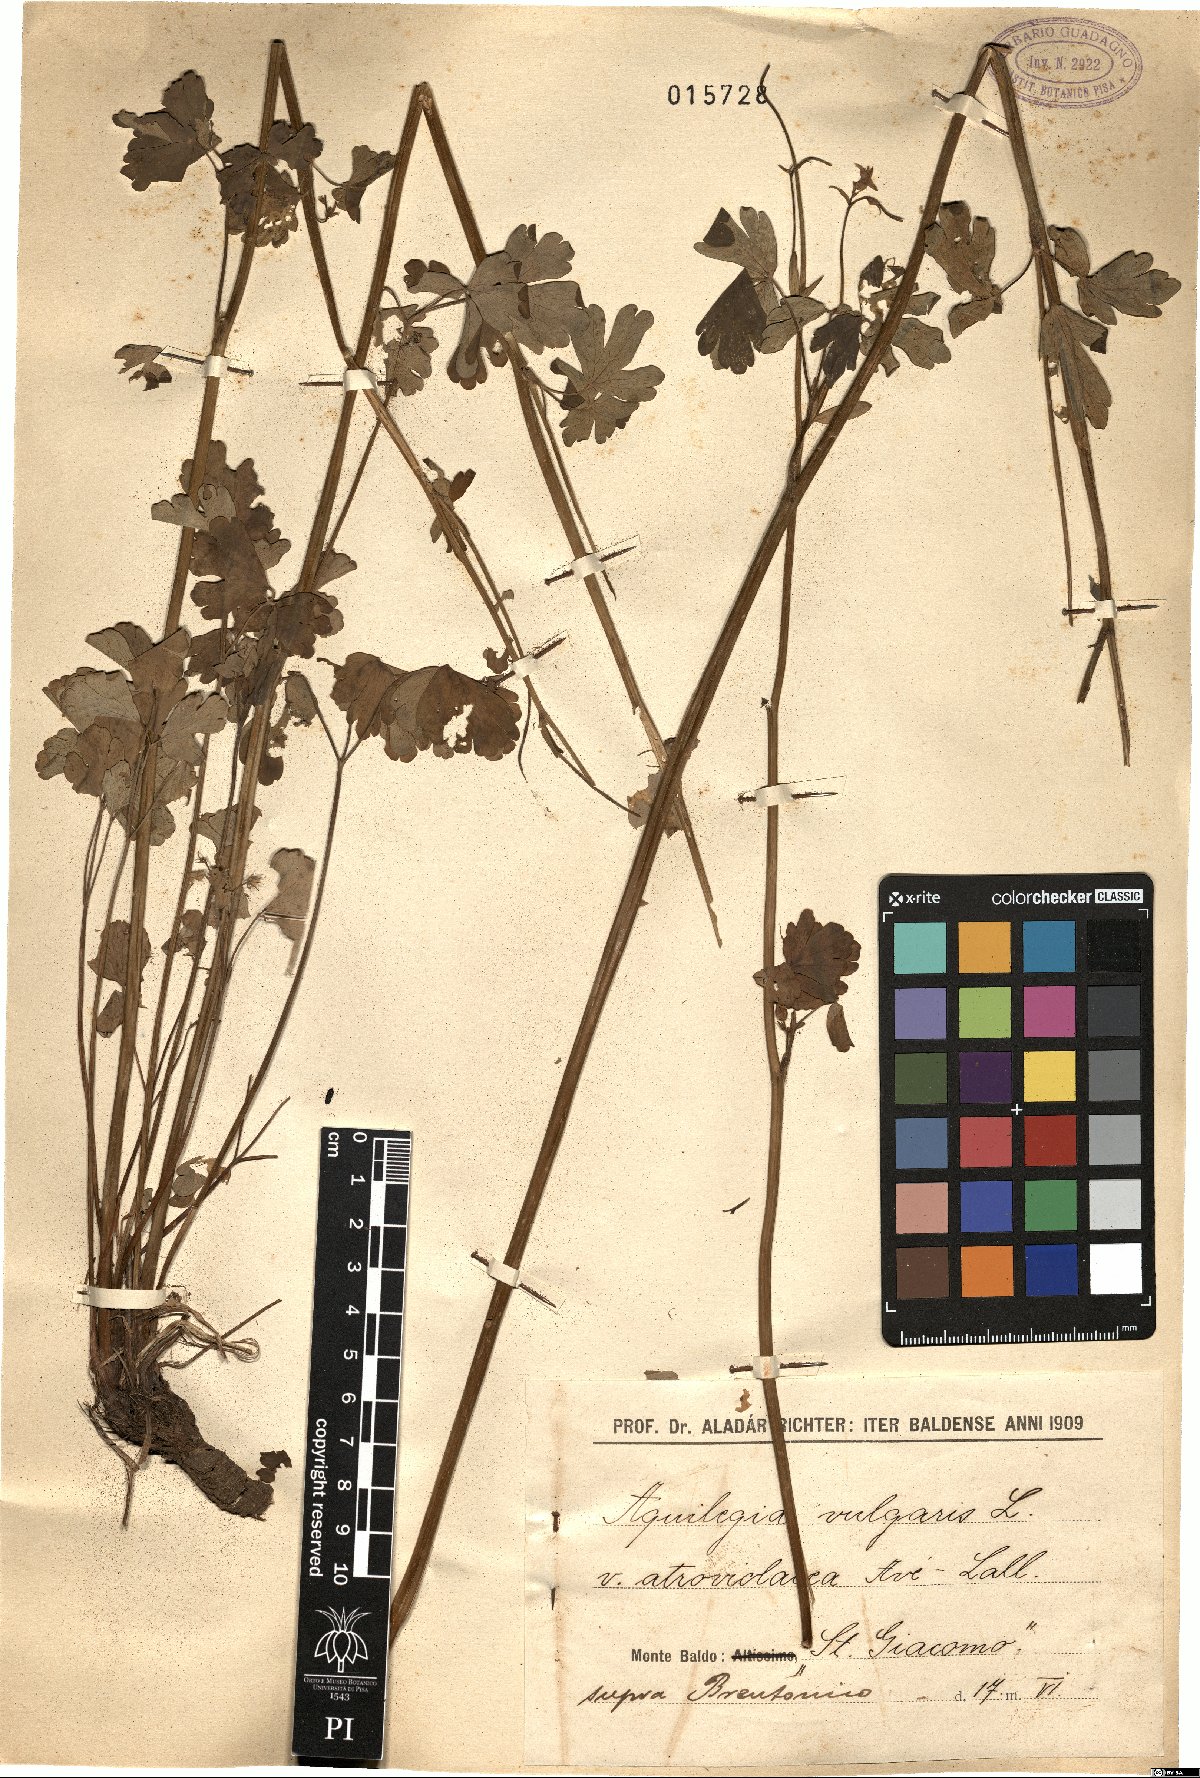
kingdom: Plantae
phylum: Tracheophyta
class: Magnoliopsida
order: Ranunculales
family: Ranunculaceae
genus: Aquilegia
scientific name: Aquilegia atrata
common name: Dark columbine
